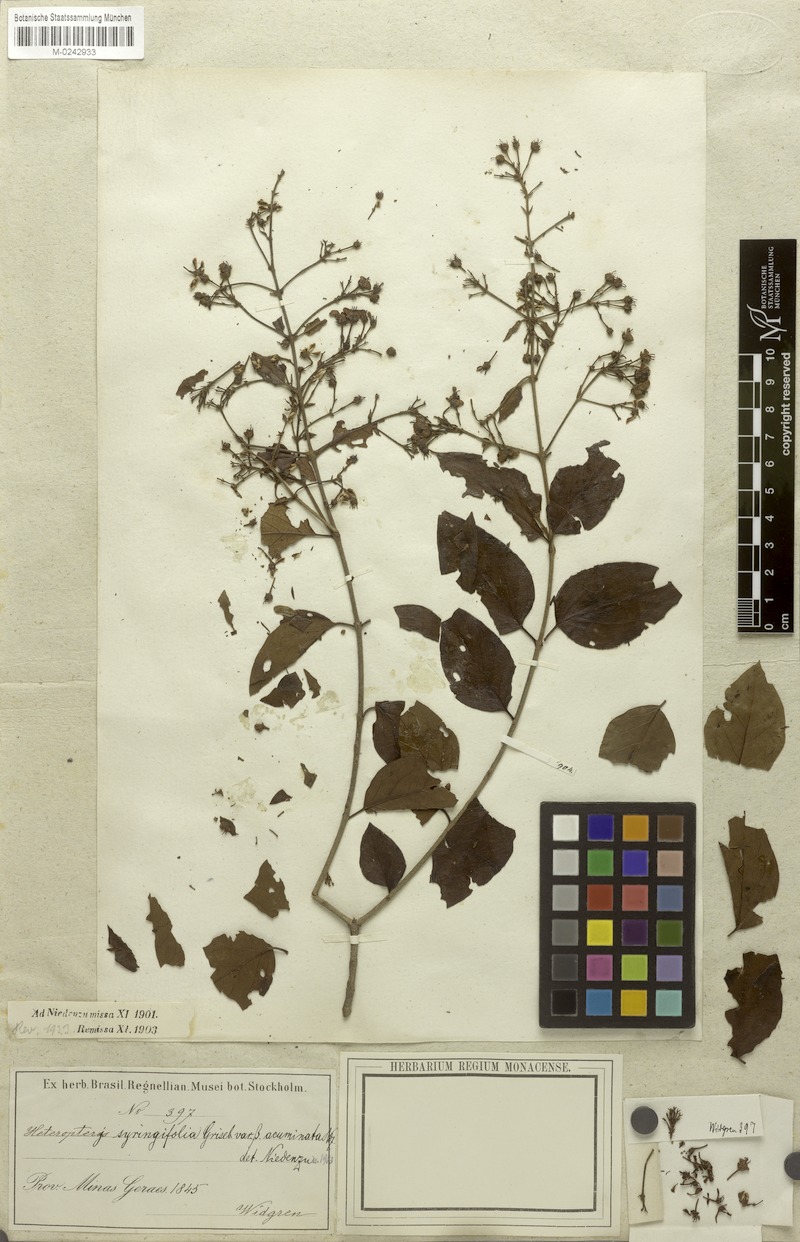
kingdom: Plantae
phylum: Tracheophyta
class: Magnoliopsida
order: Malpighiales
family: Malpighiaceae
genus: Heteropterys
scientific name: Heteropterys syringifolia
